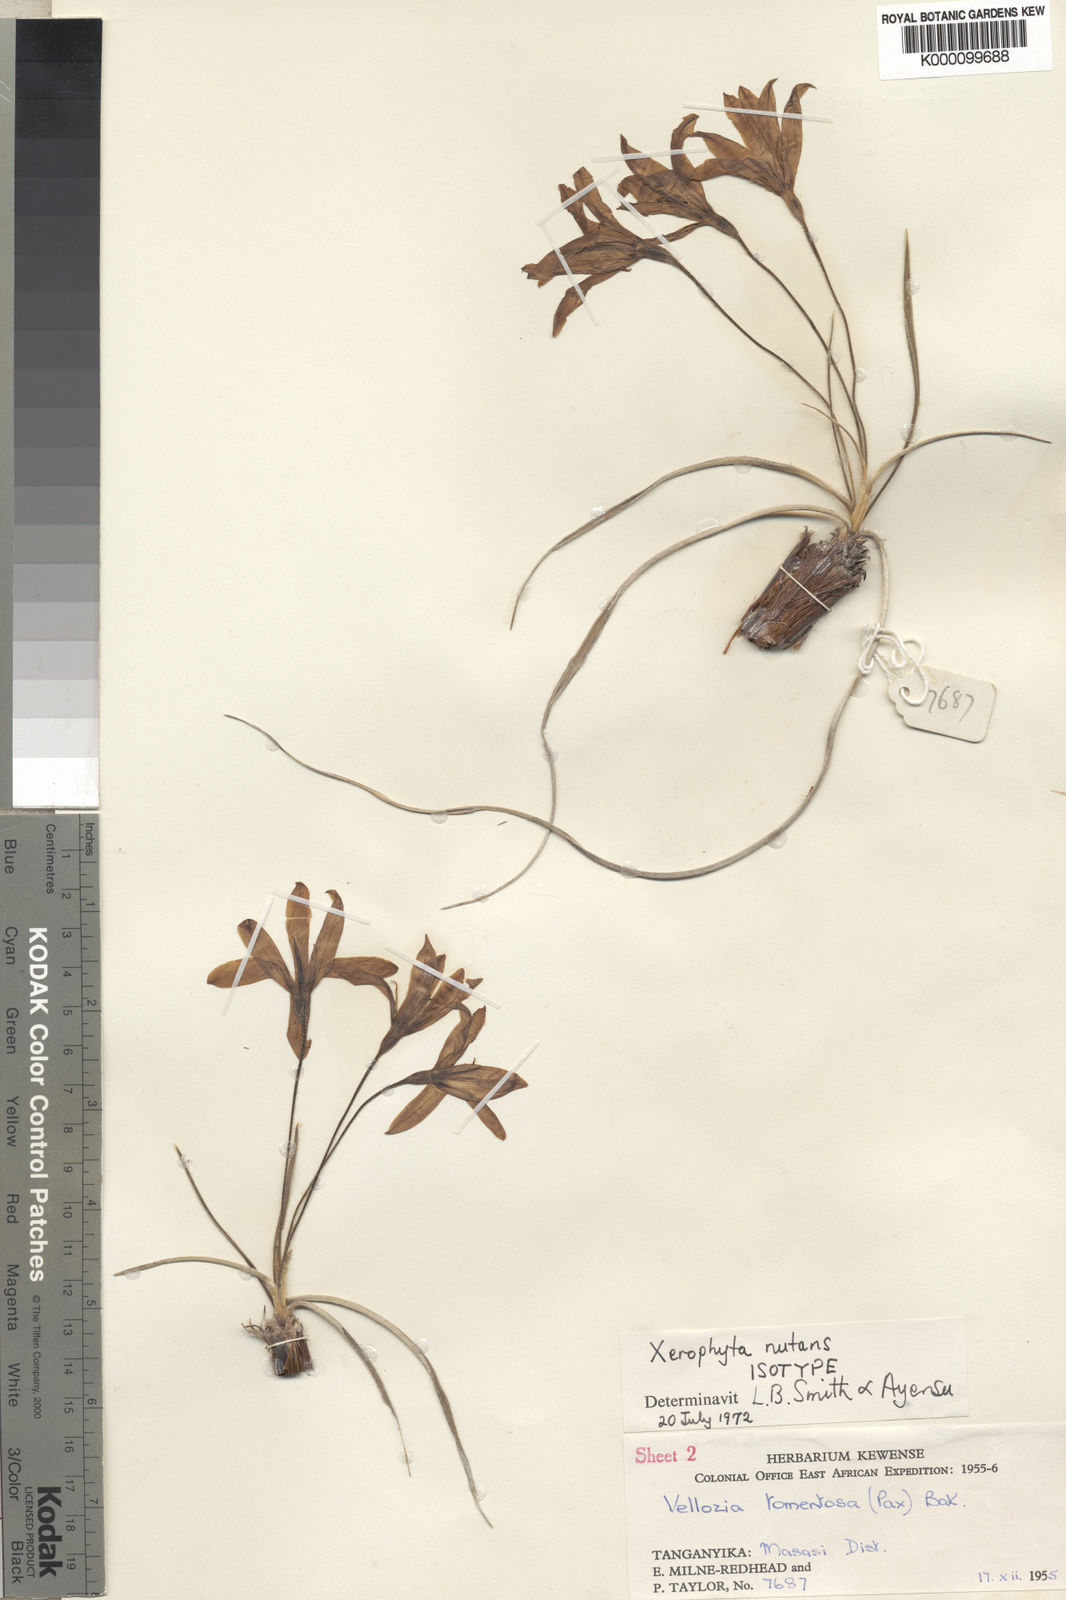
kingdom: Plantae
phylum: Tracheophyta
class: Liliopsida
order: Pandanales
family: Velloziaceae
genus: Xerophyta
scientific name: Xerophyta nutans
